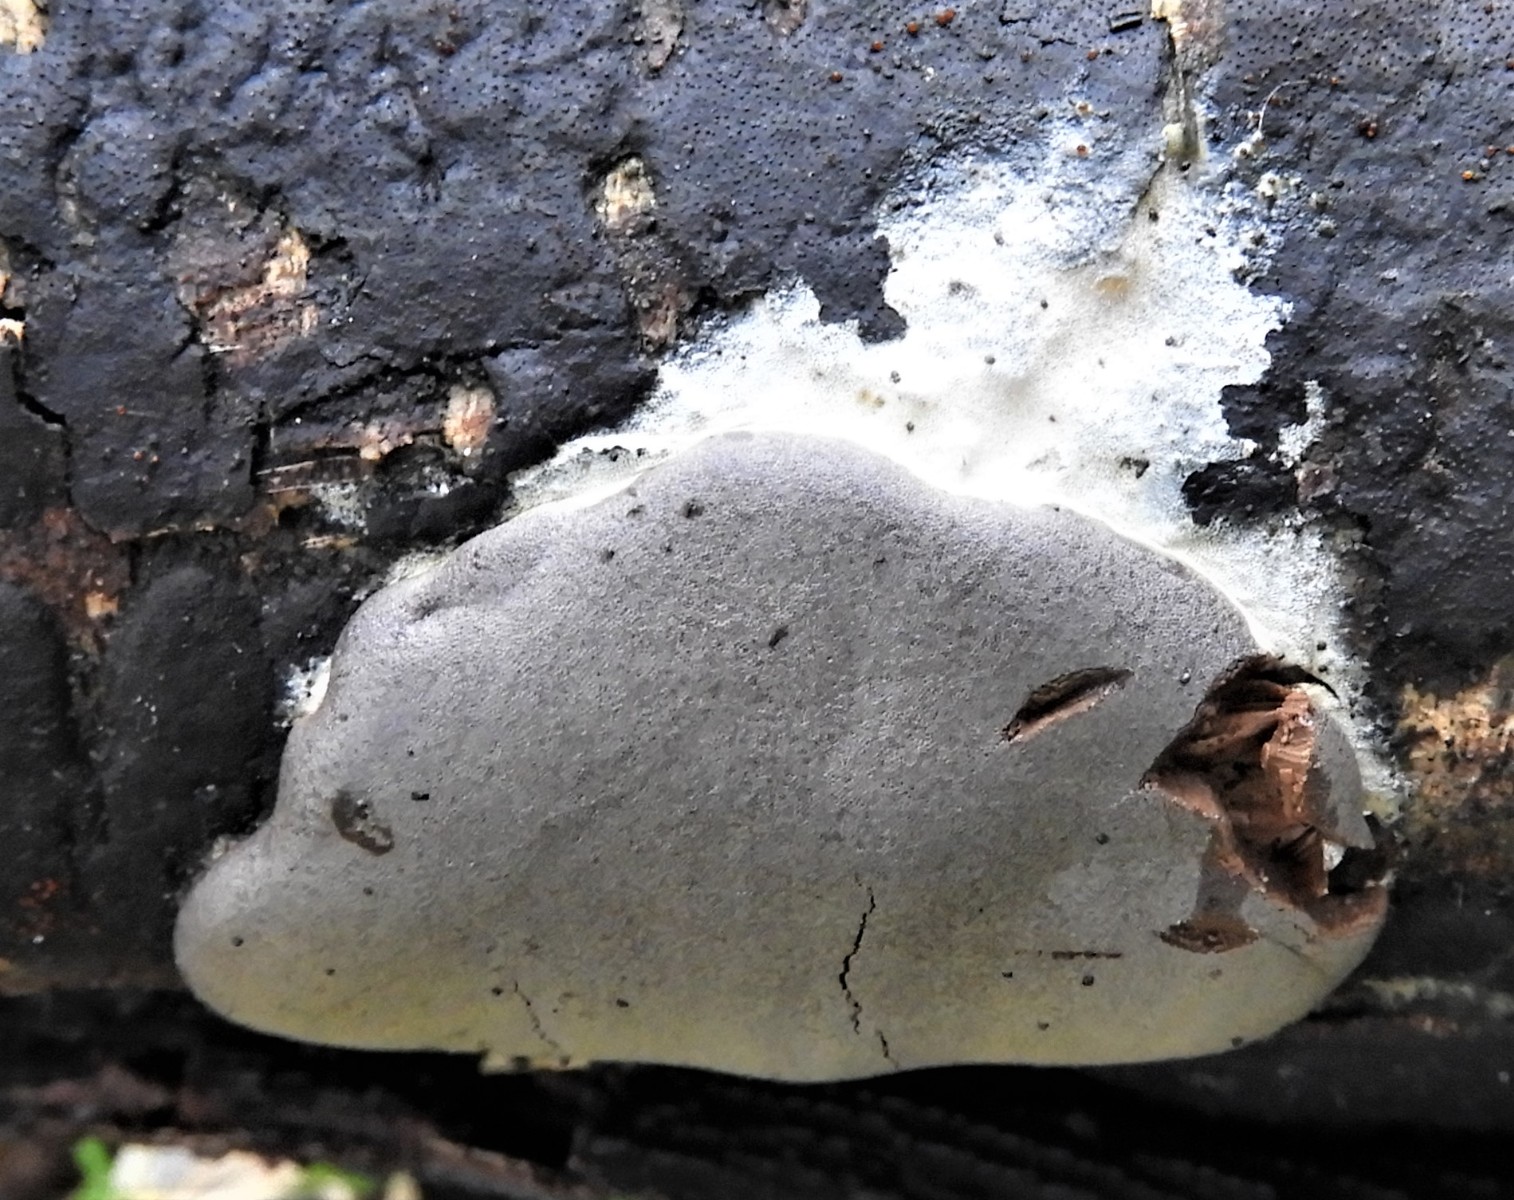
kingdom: Protozoa
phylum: Mycetozoa
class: Myxomycetes
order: Trichiales
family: Dictydiaethaliaceae
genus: Dictydiaethalium
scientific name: Dictydiaethalium plumbeum
